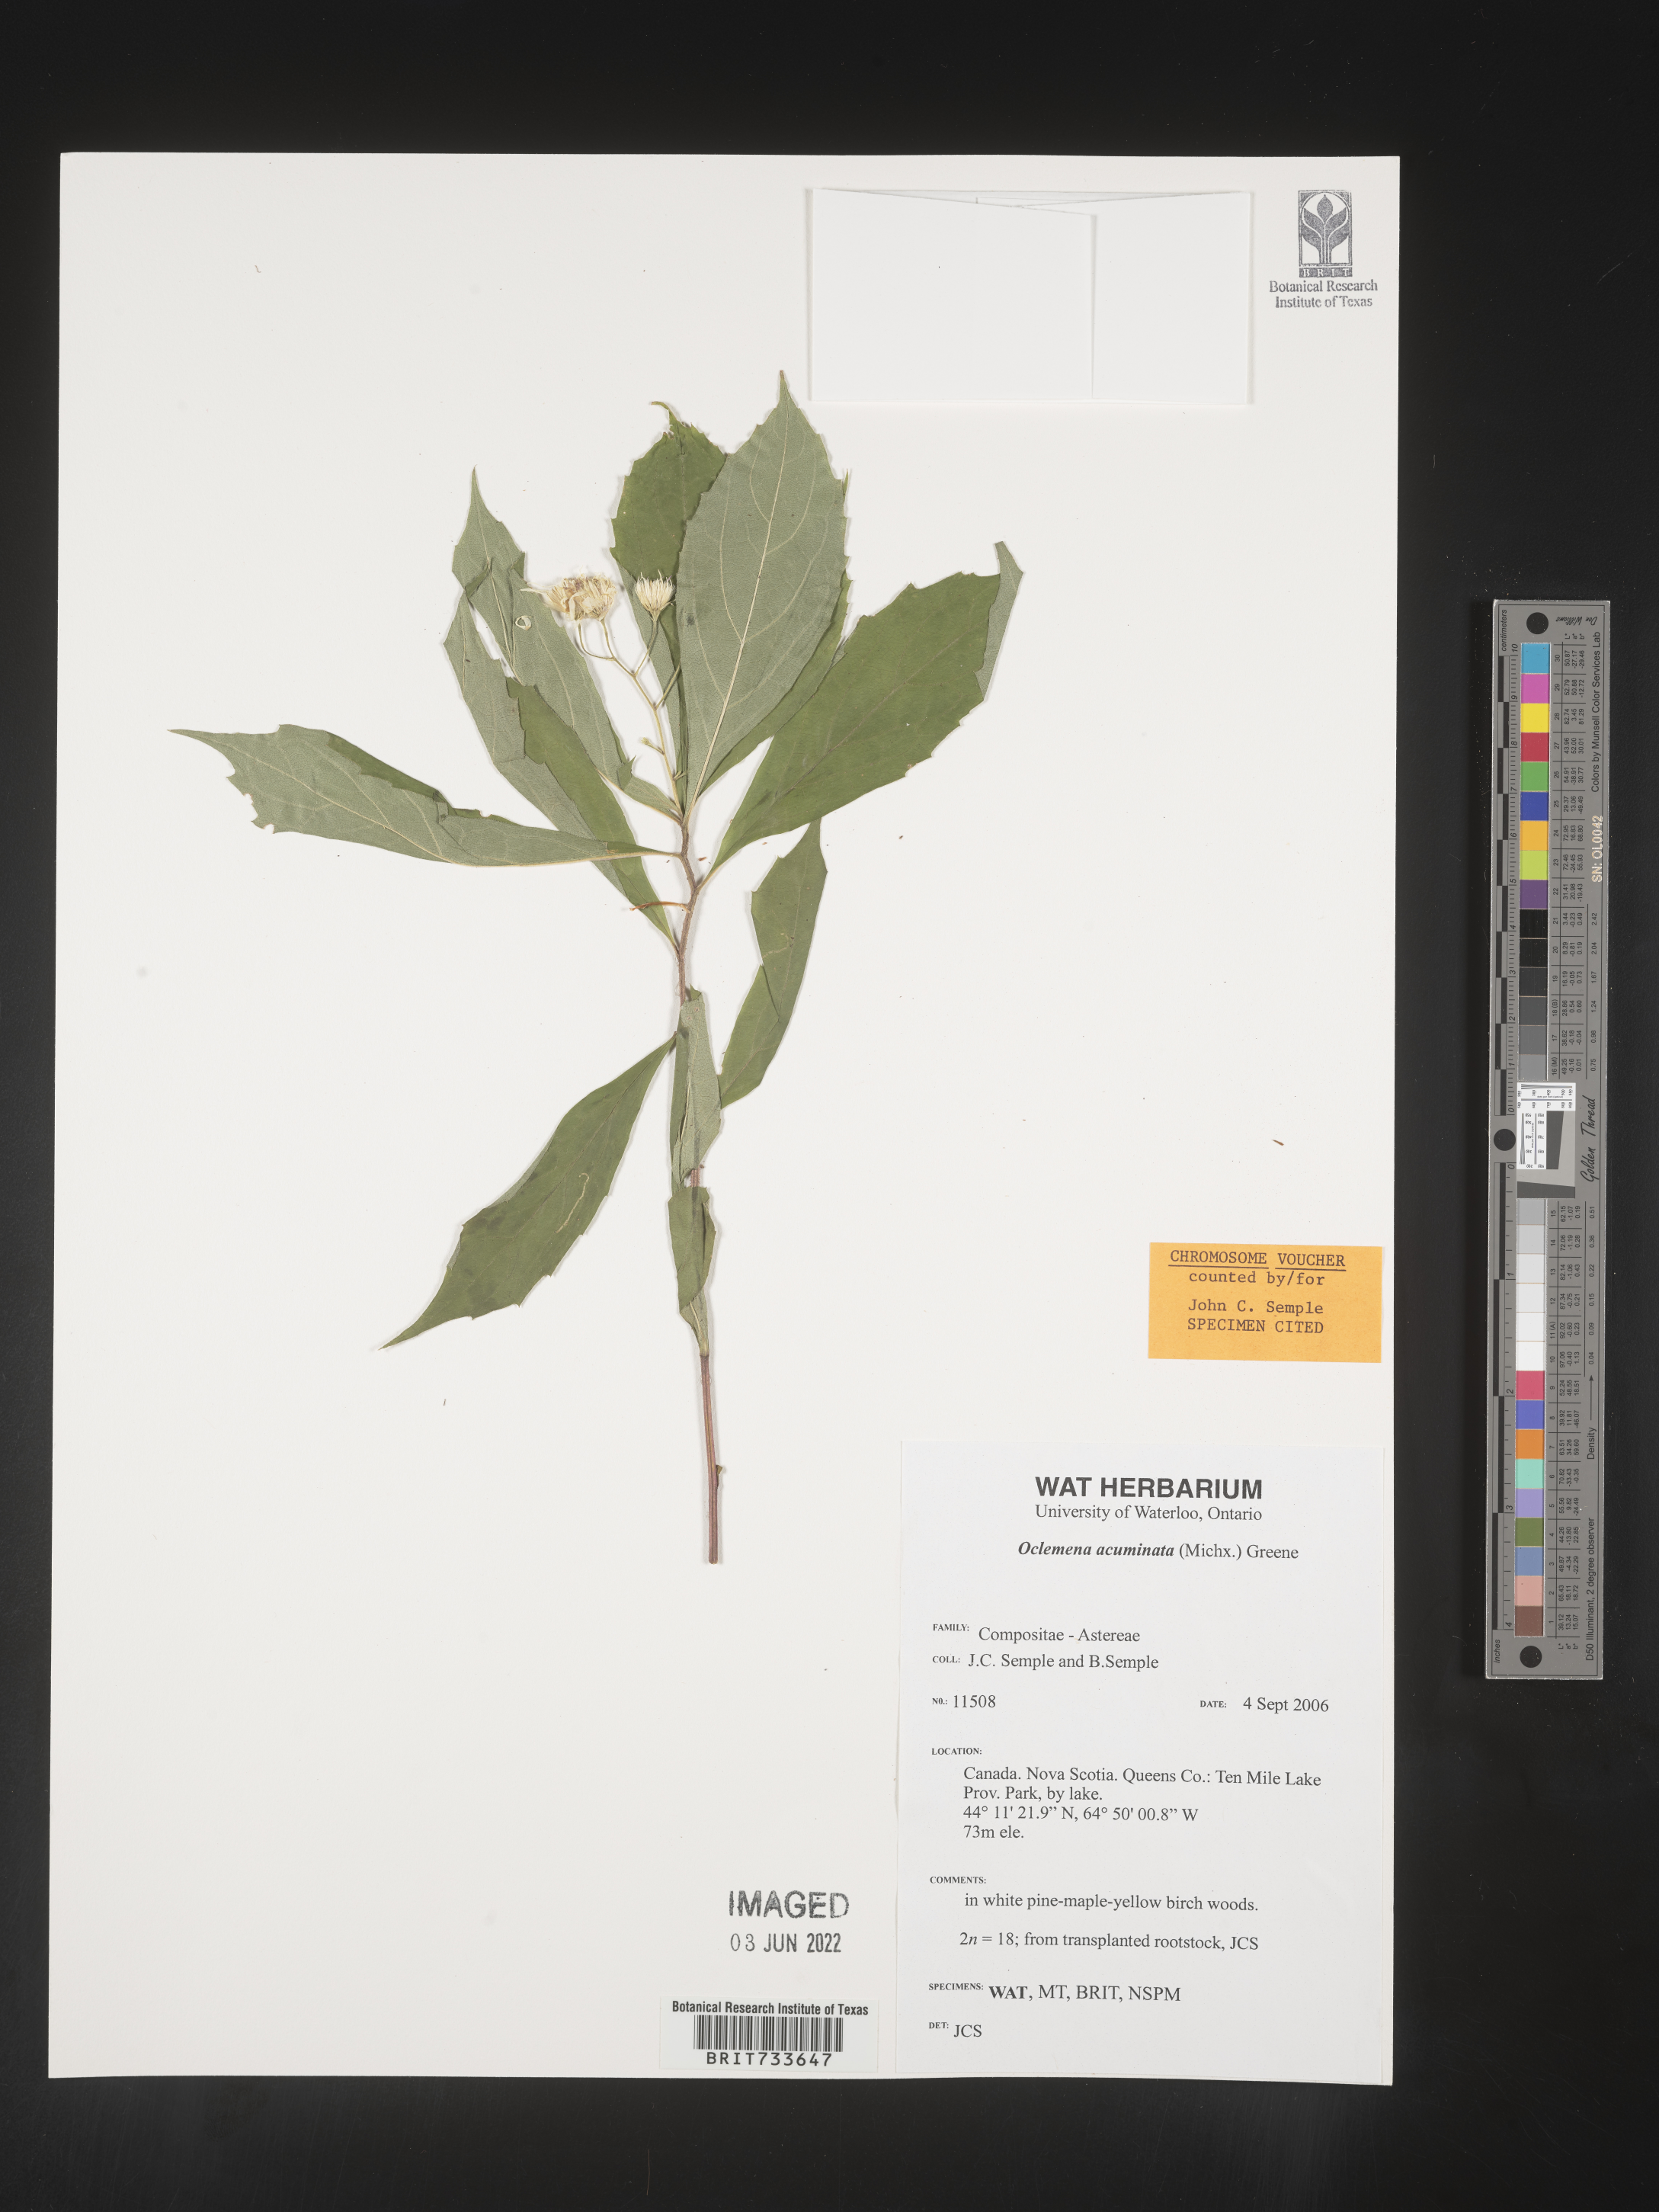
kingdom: Plantae
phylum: Tracheophyta
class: Magnoliopsida
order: Asterales
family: Asteraceae
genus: Oclemena
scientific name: Oclemena acuminata
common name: Mountain aster
